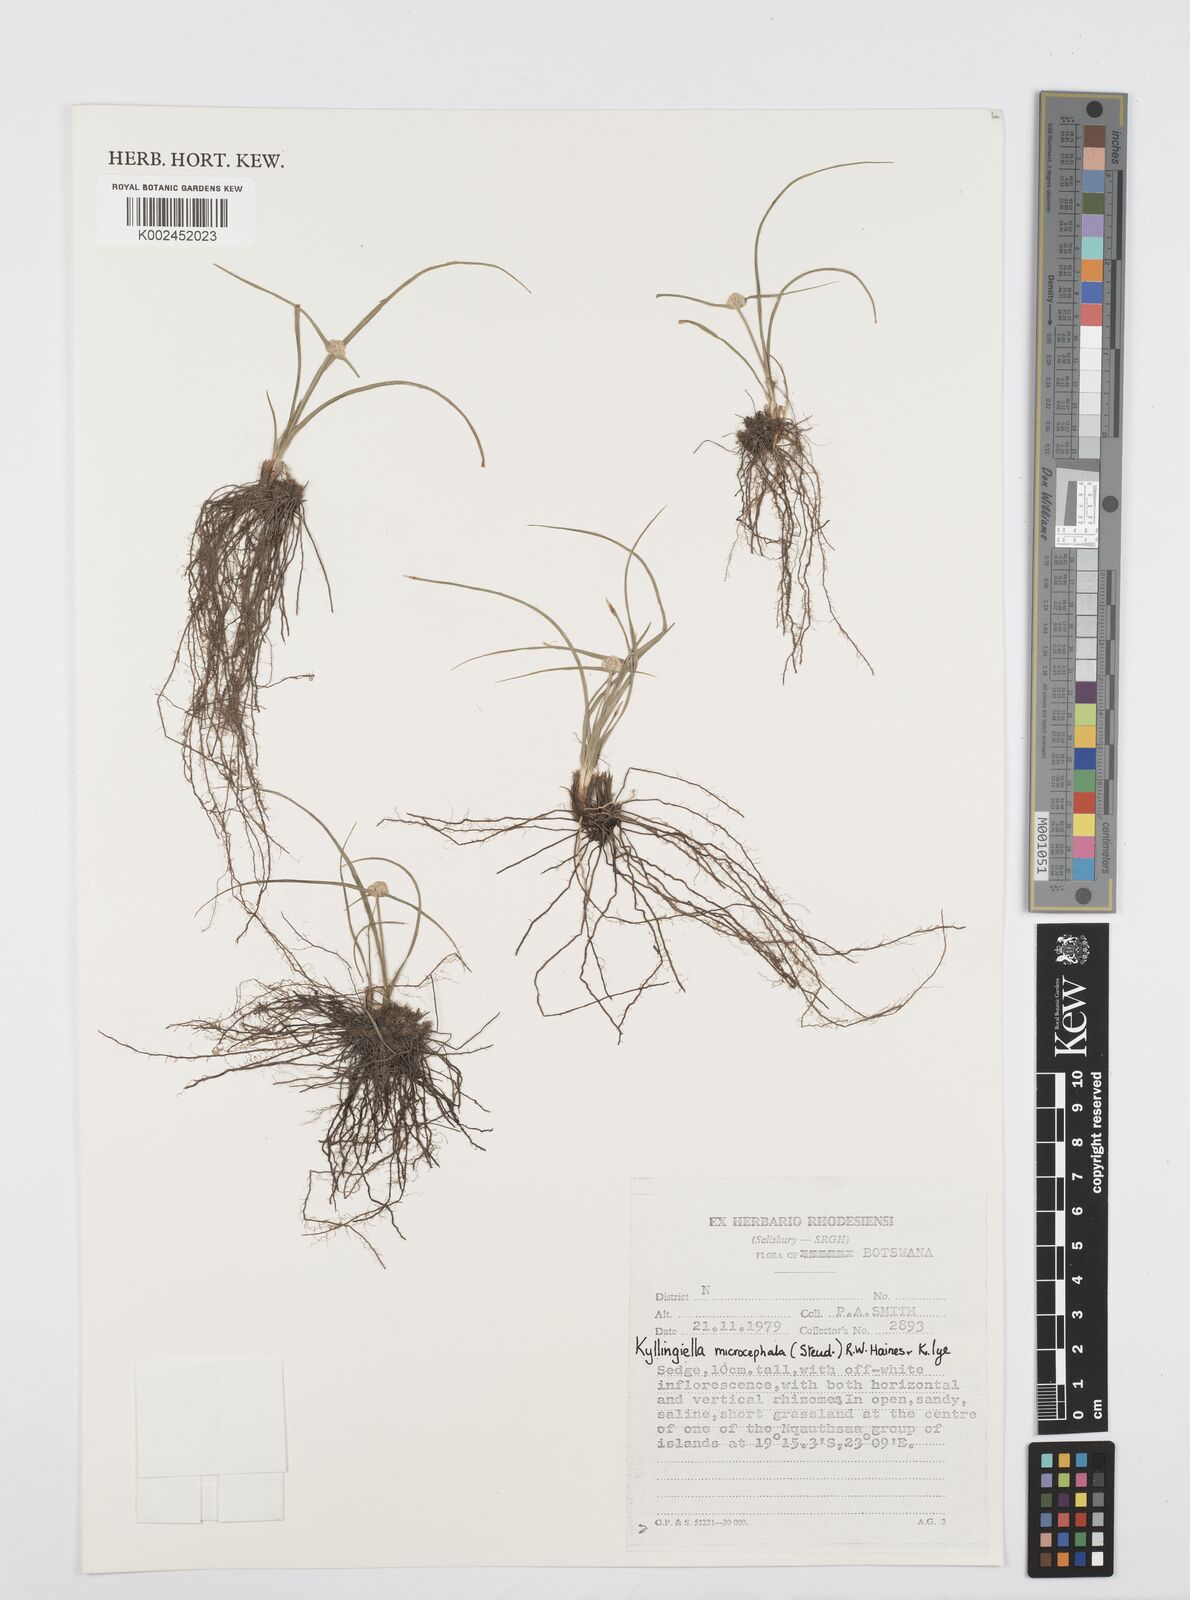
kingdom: Plantae
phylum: Tracheophyta
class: Liliopsida
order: Poales
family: Cyperaceae
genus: Cyperus
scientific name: Cyperus microcephalus
